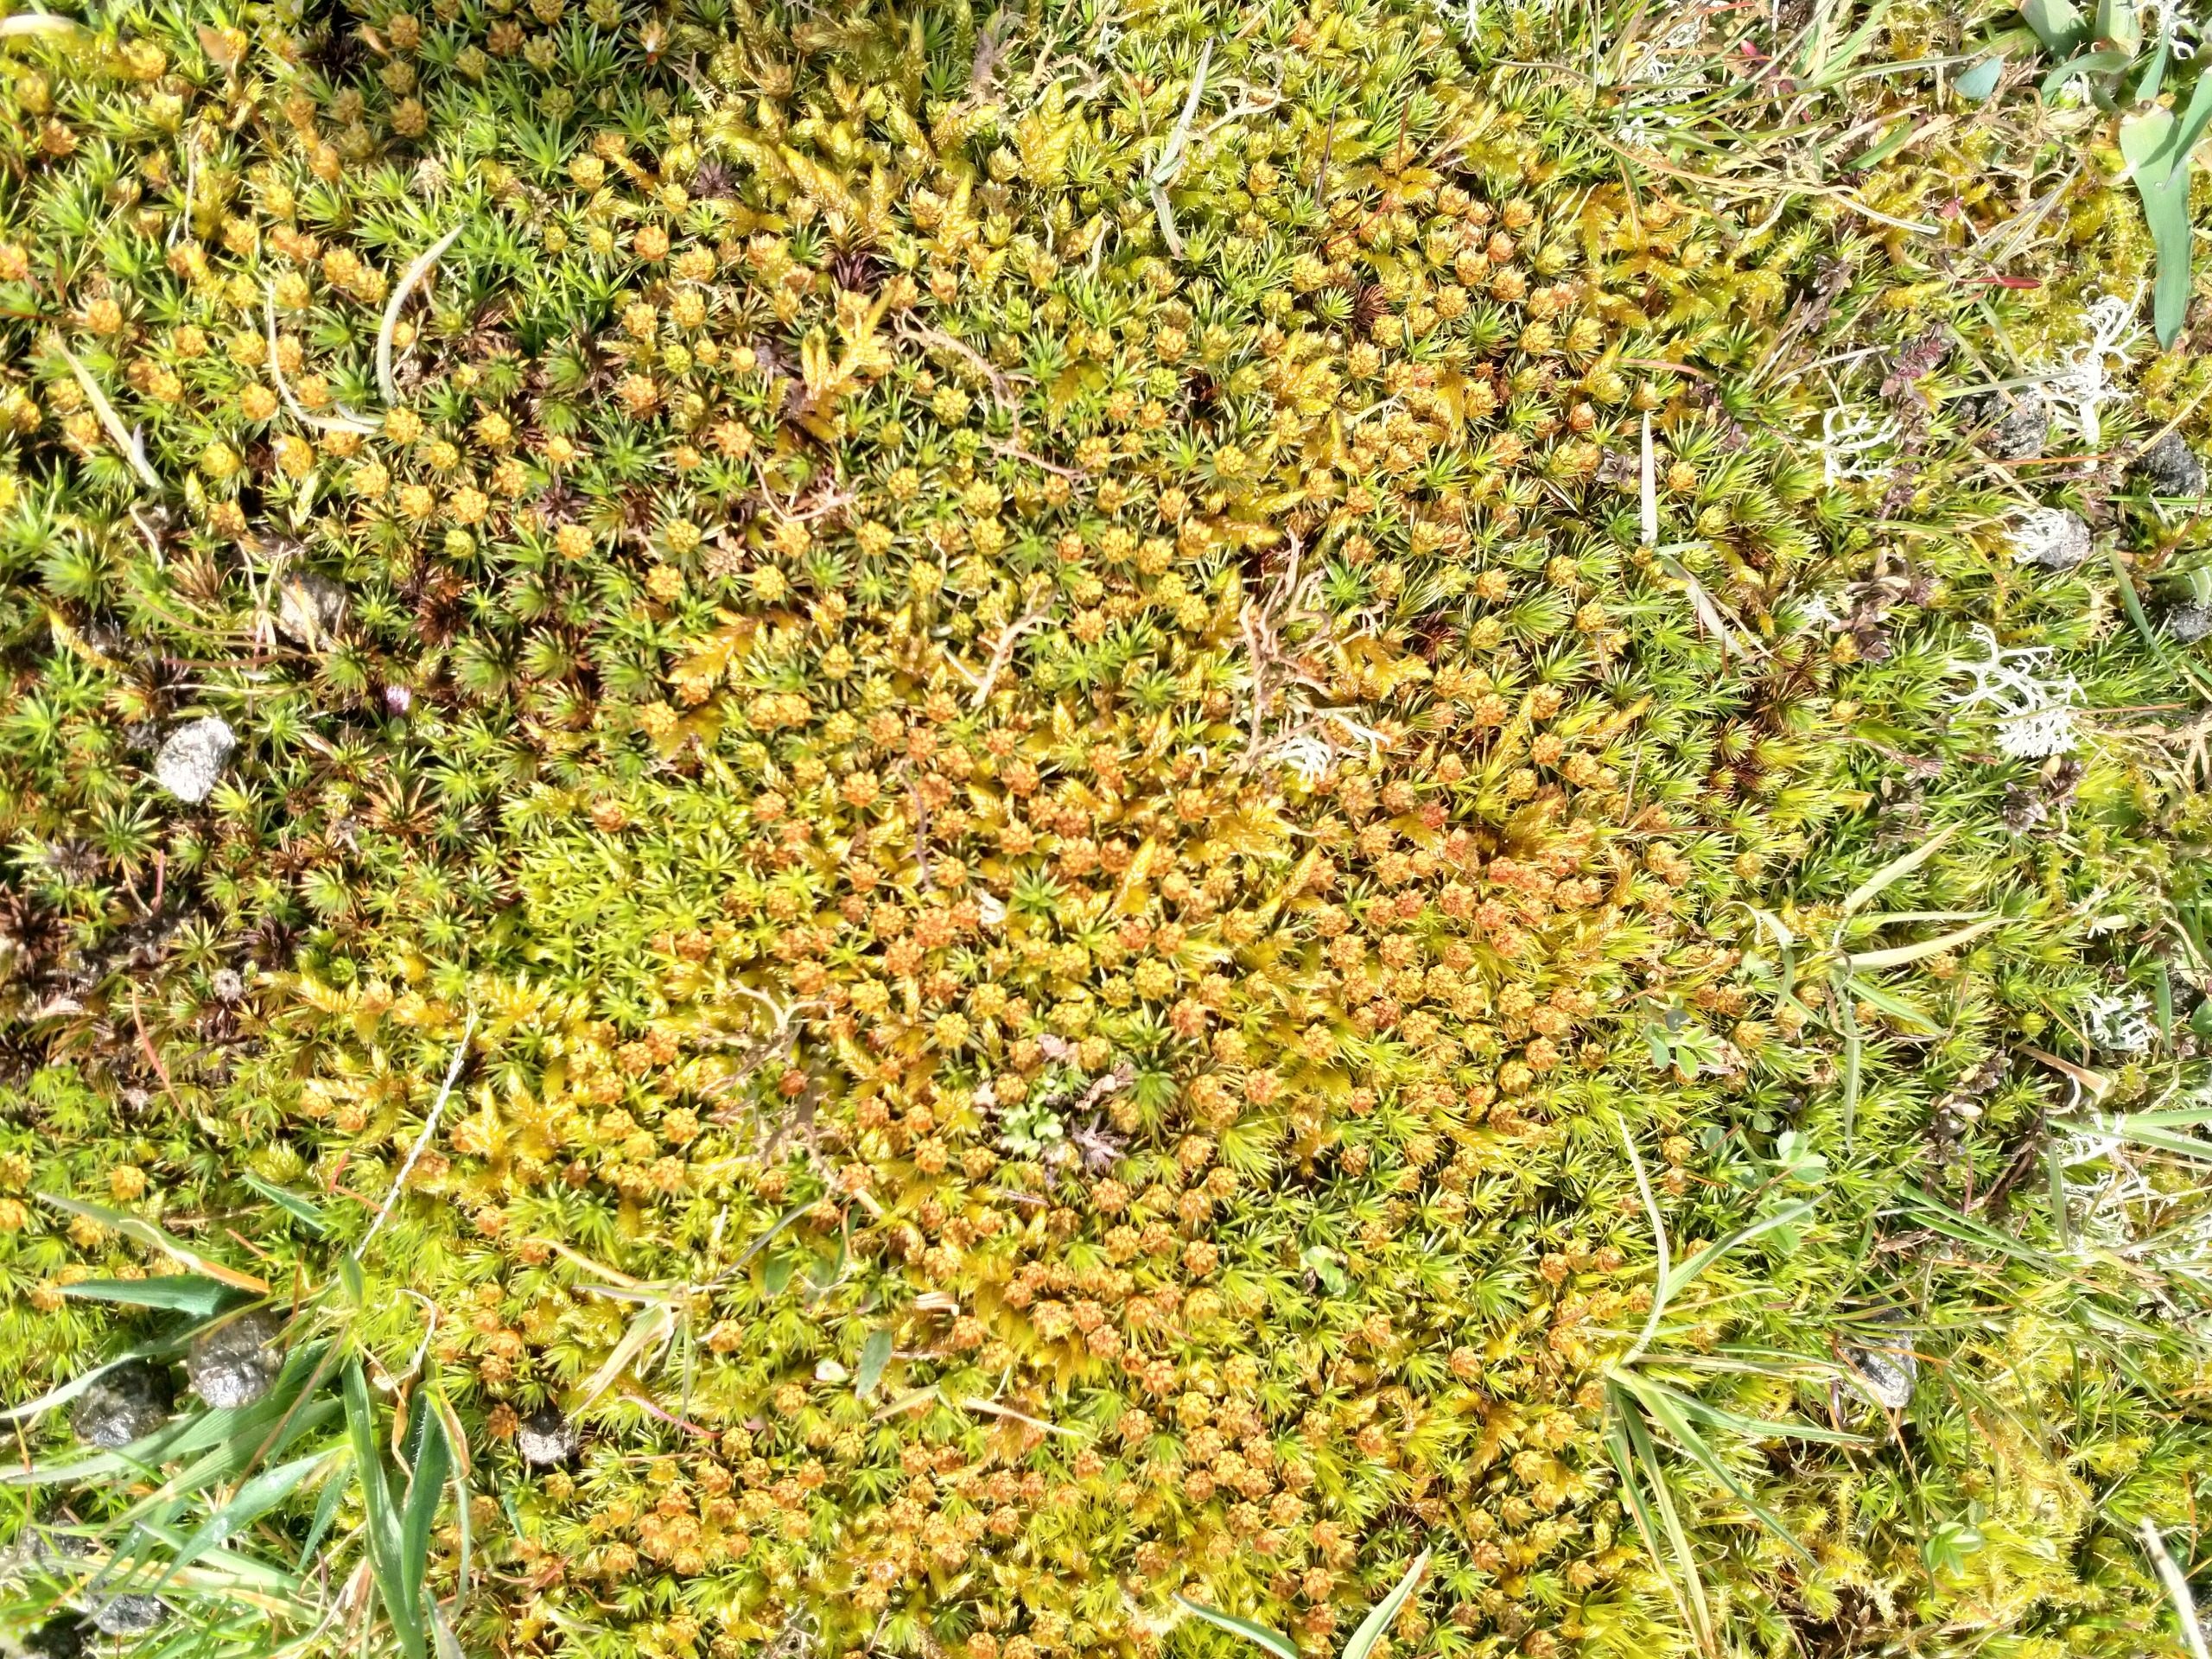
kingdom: Plantae
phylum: Bryophyta
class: Polytrichopsida
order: Polytrichales
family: Polytrichaceae
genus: Polytrichum
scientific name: Polytrichum juniperinum
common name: Ene-jomfruhår
